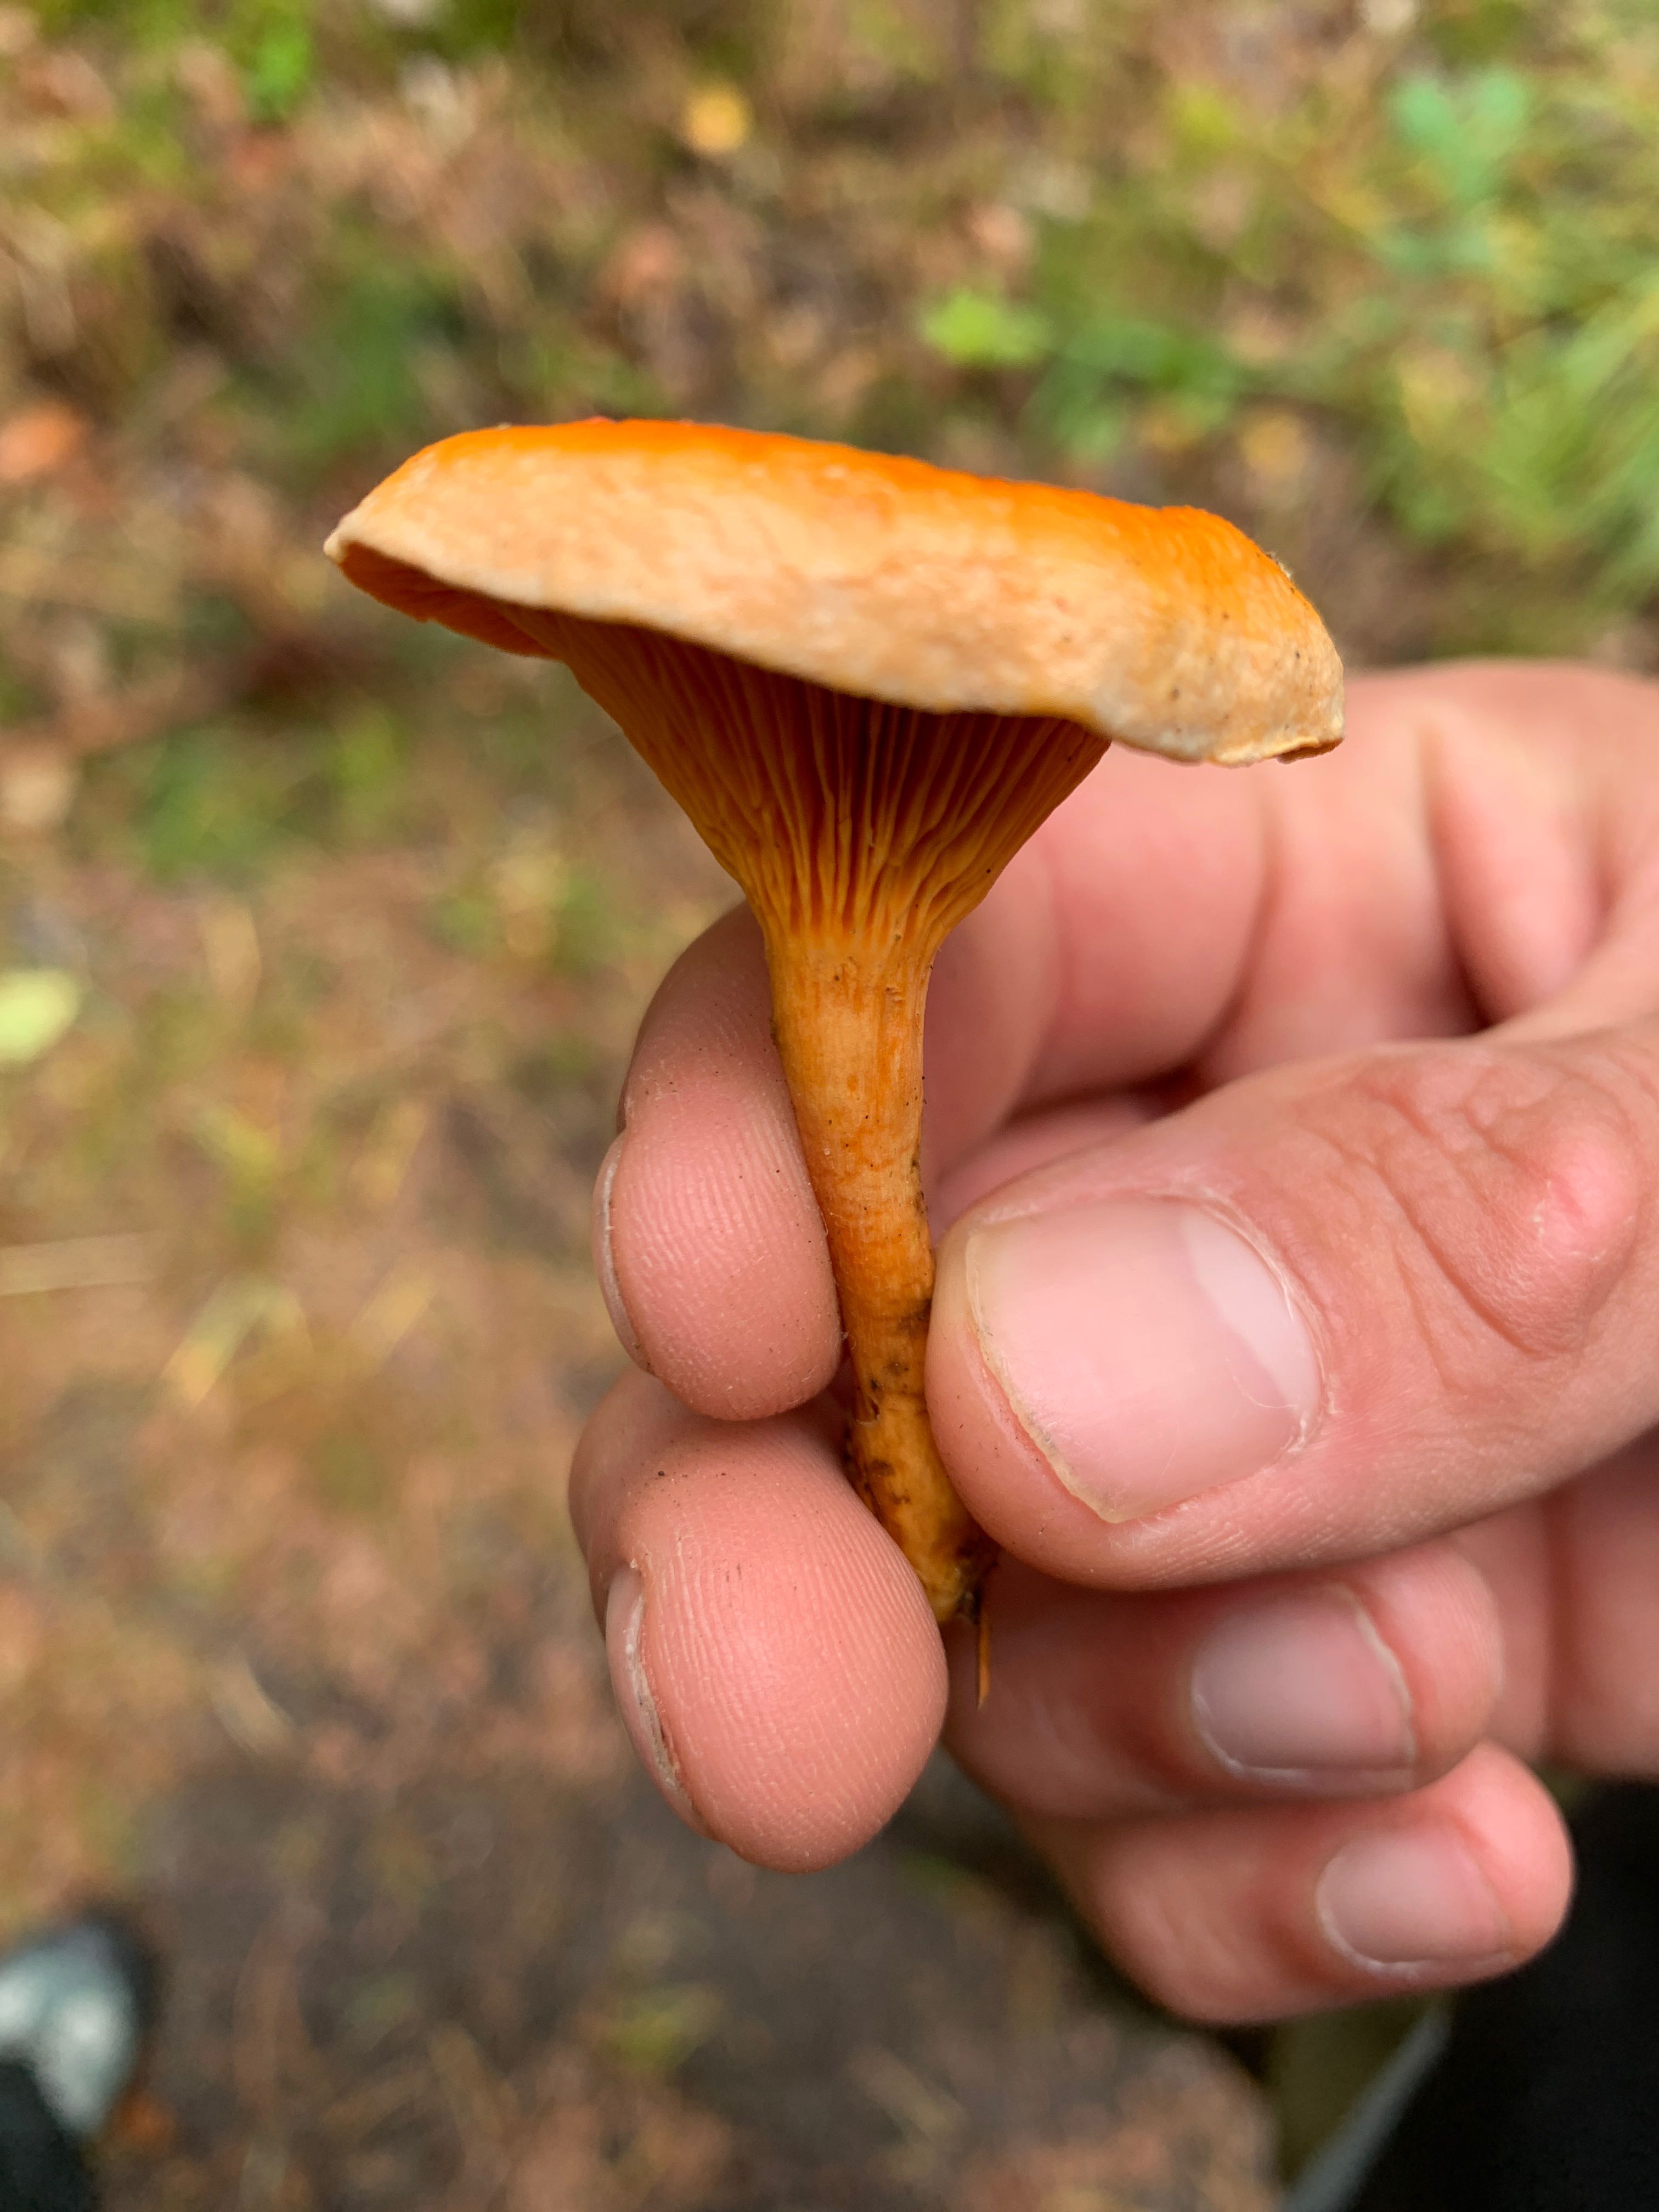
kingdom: Fungi
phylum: Basidiomycota
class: Agaricomycetes
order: Boletales
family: Hygrophoropsidaceae
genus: Hygrophoropsis
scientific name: Hygrophoropsis aurantiaca
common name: almindelig orangekantarel
